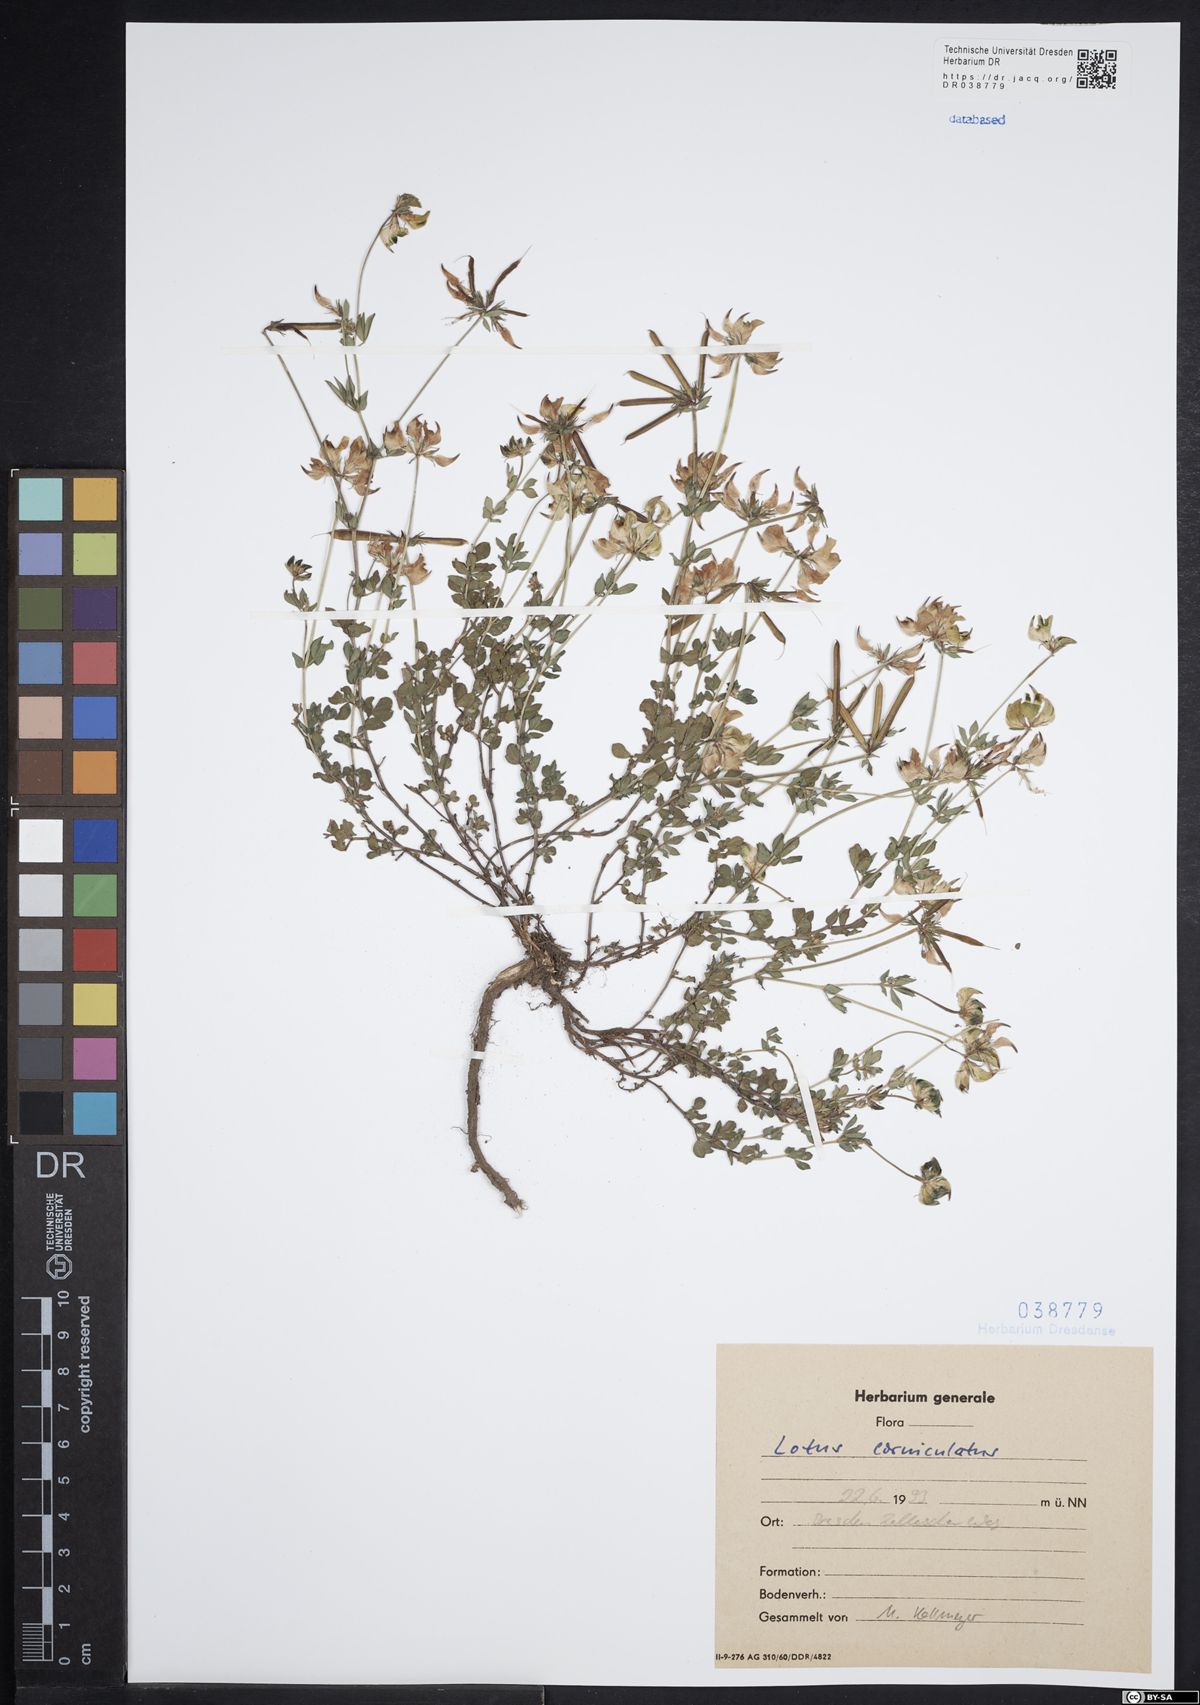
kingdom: Plantae
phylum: Tracheophyta
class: Magnoliopsida
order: Fabales
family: Fabaceae
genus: Lotus
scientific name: Lotus corniculatus
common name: Common bird's-foot-trefoil
